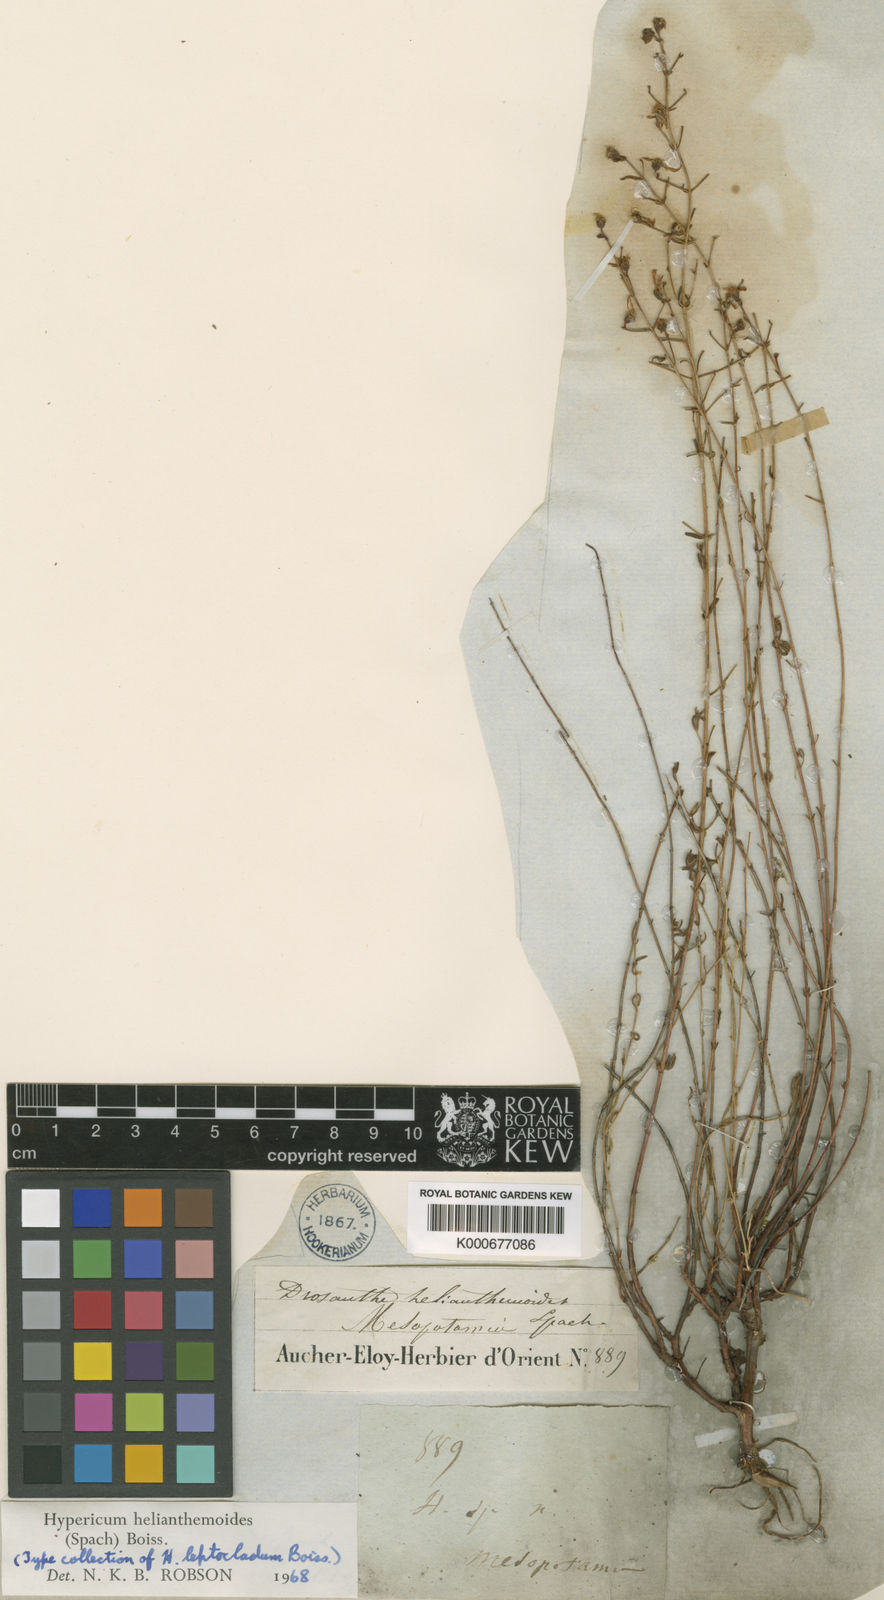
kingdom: Plantae
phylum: Tracheophyta
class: Magnoliopsida
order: Malpighiales
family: Hypericaceae
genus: Hypericum
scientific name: Hypericum helianthemoides
